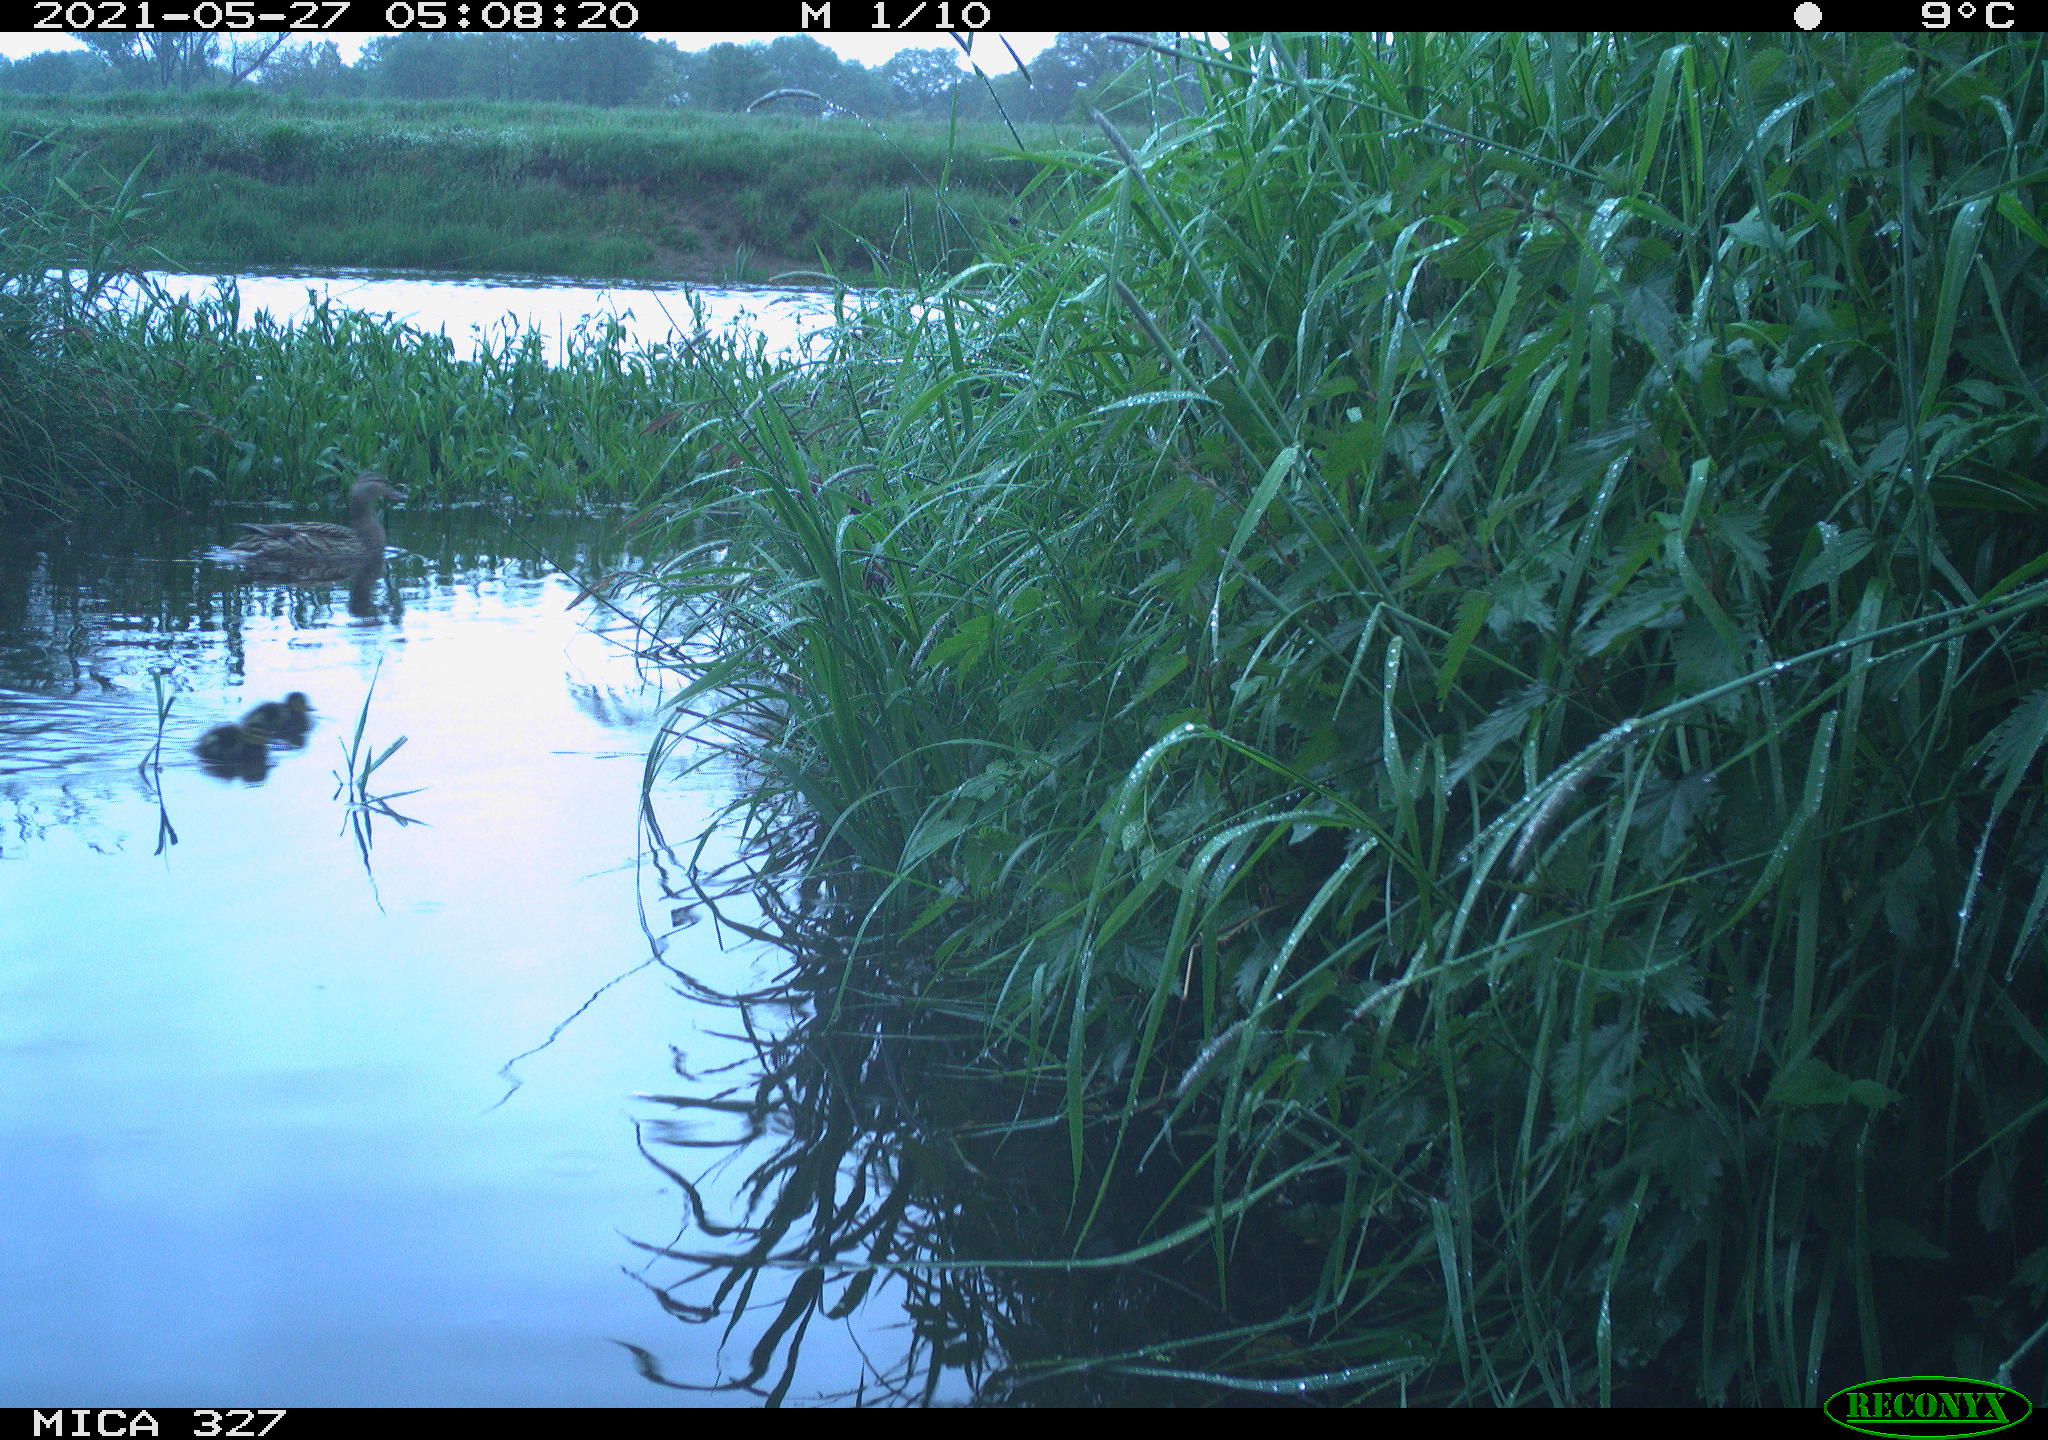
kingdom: Animalia
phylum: Chordata
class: Aves
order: Anseriformes
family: Anatidae
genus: Anas
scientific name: Anas platyrhynchos
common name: Mallard
